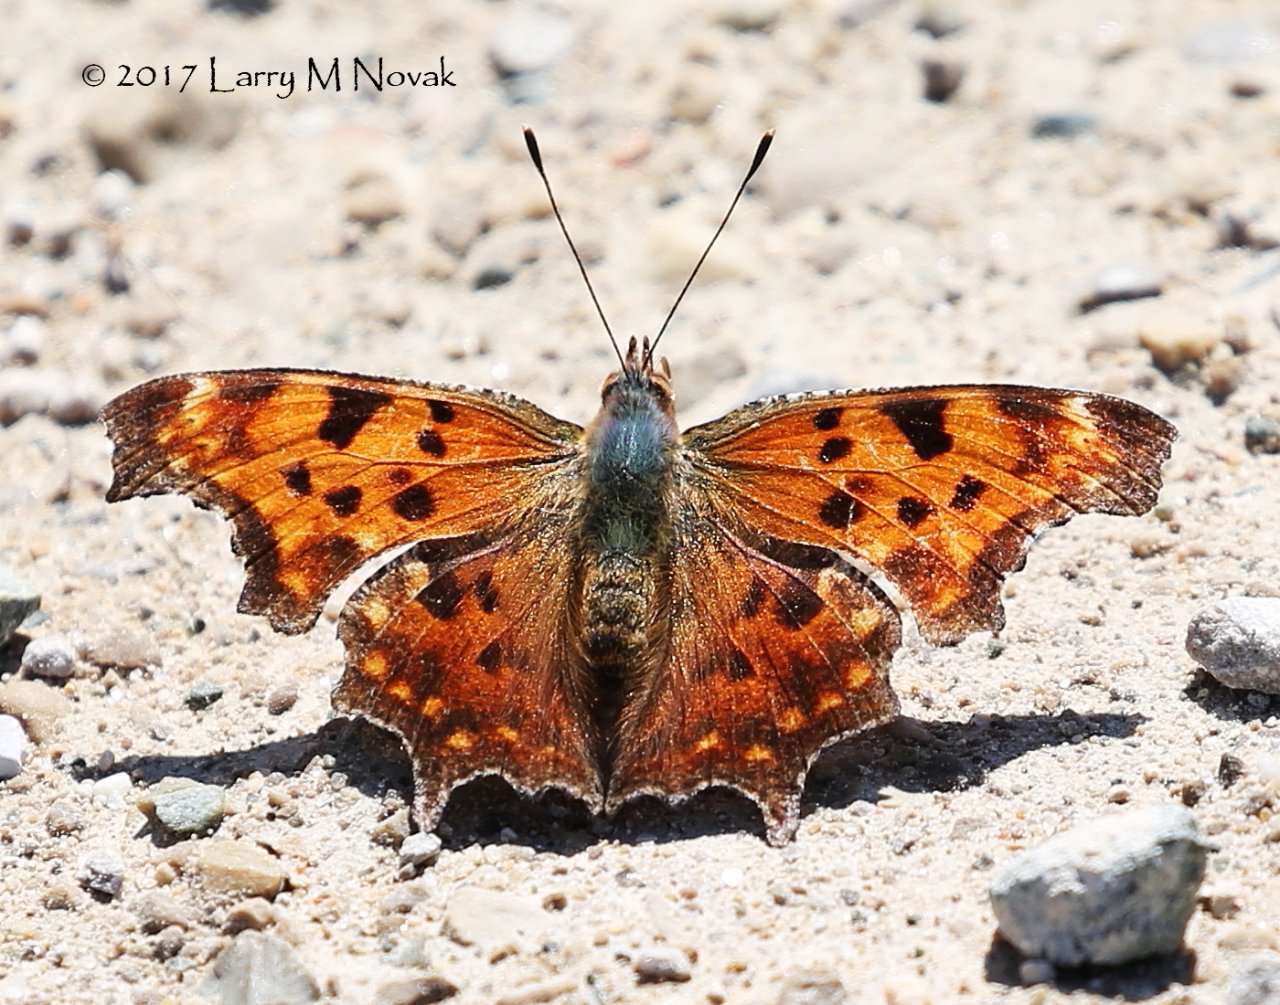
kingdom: Animalia
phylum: Arthropoda
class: Insecta
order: Lepidoptera
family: Nymphalidae
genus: Polygonia
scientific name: Polygonia comma
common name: Eastern Comma
